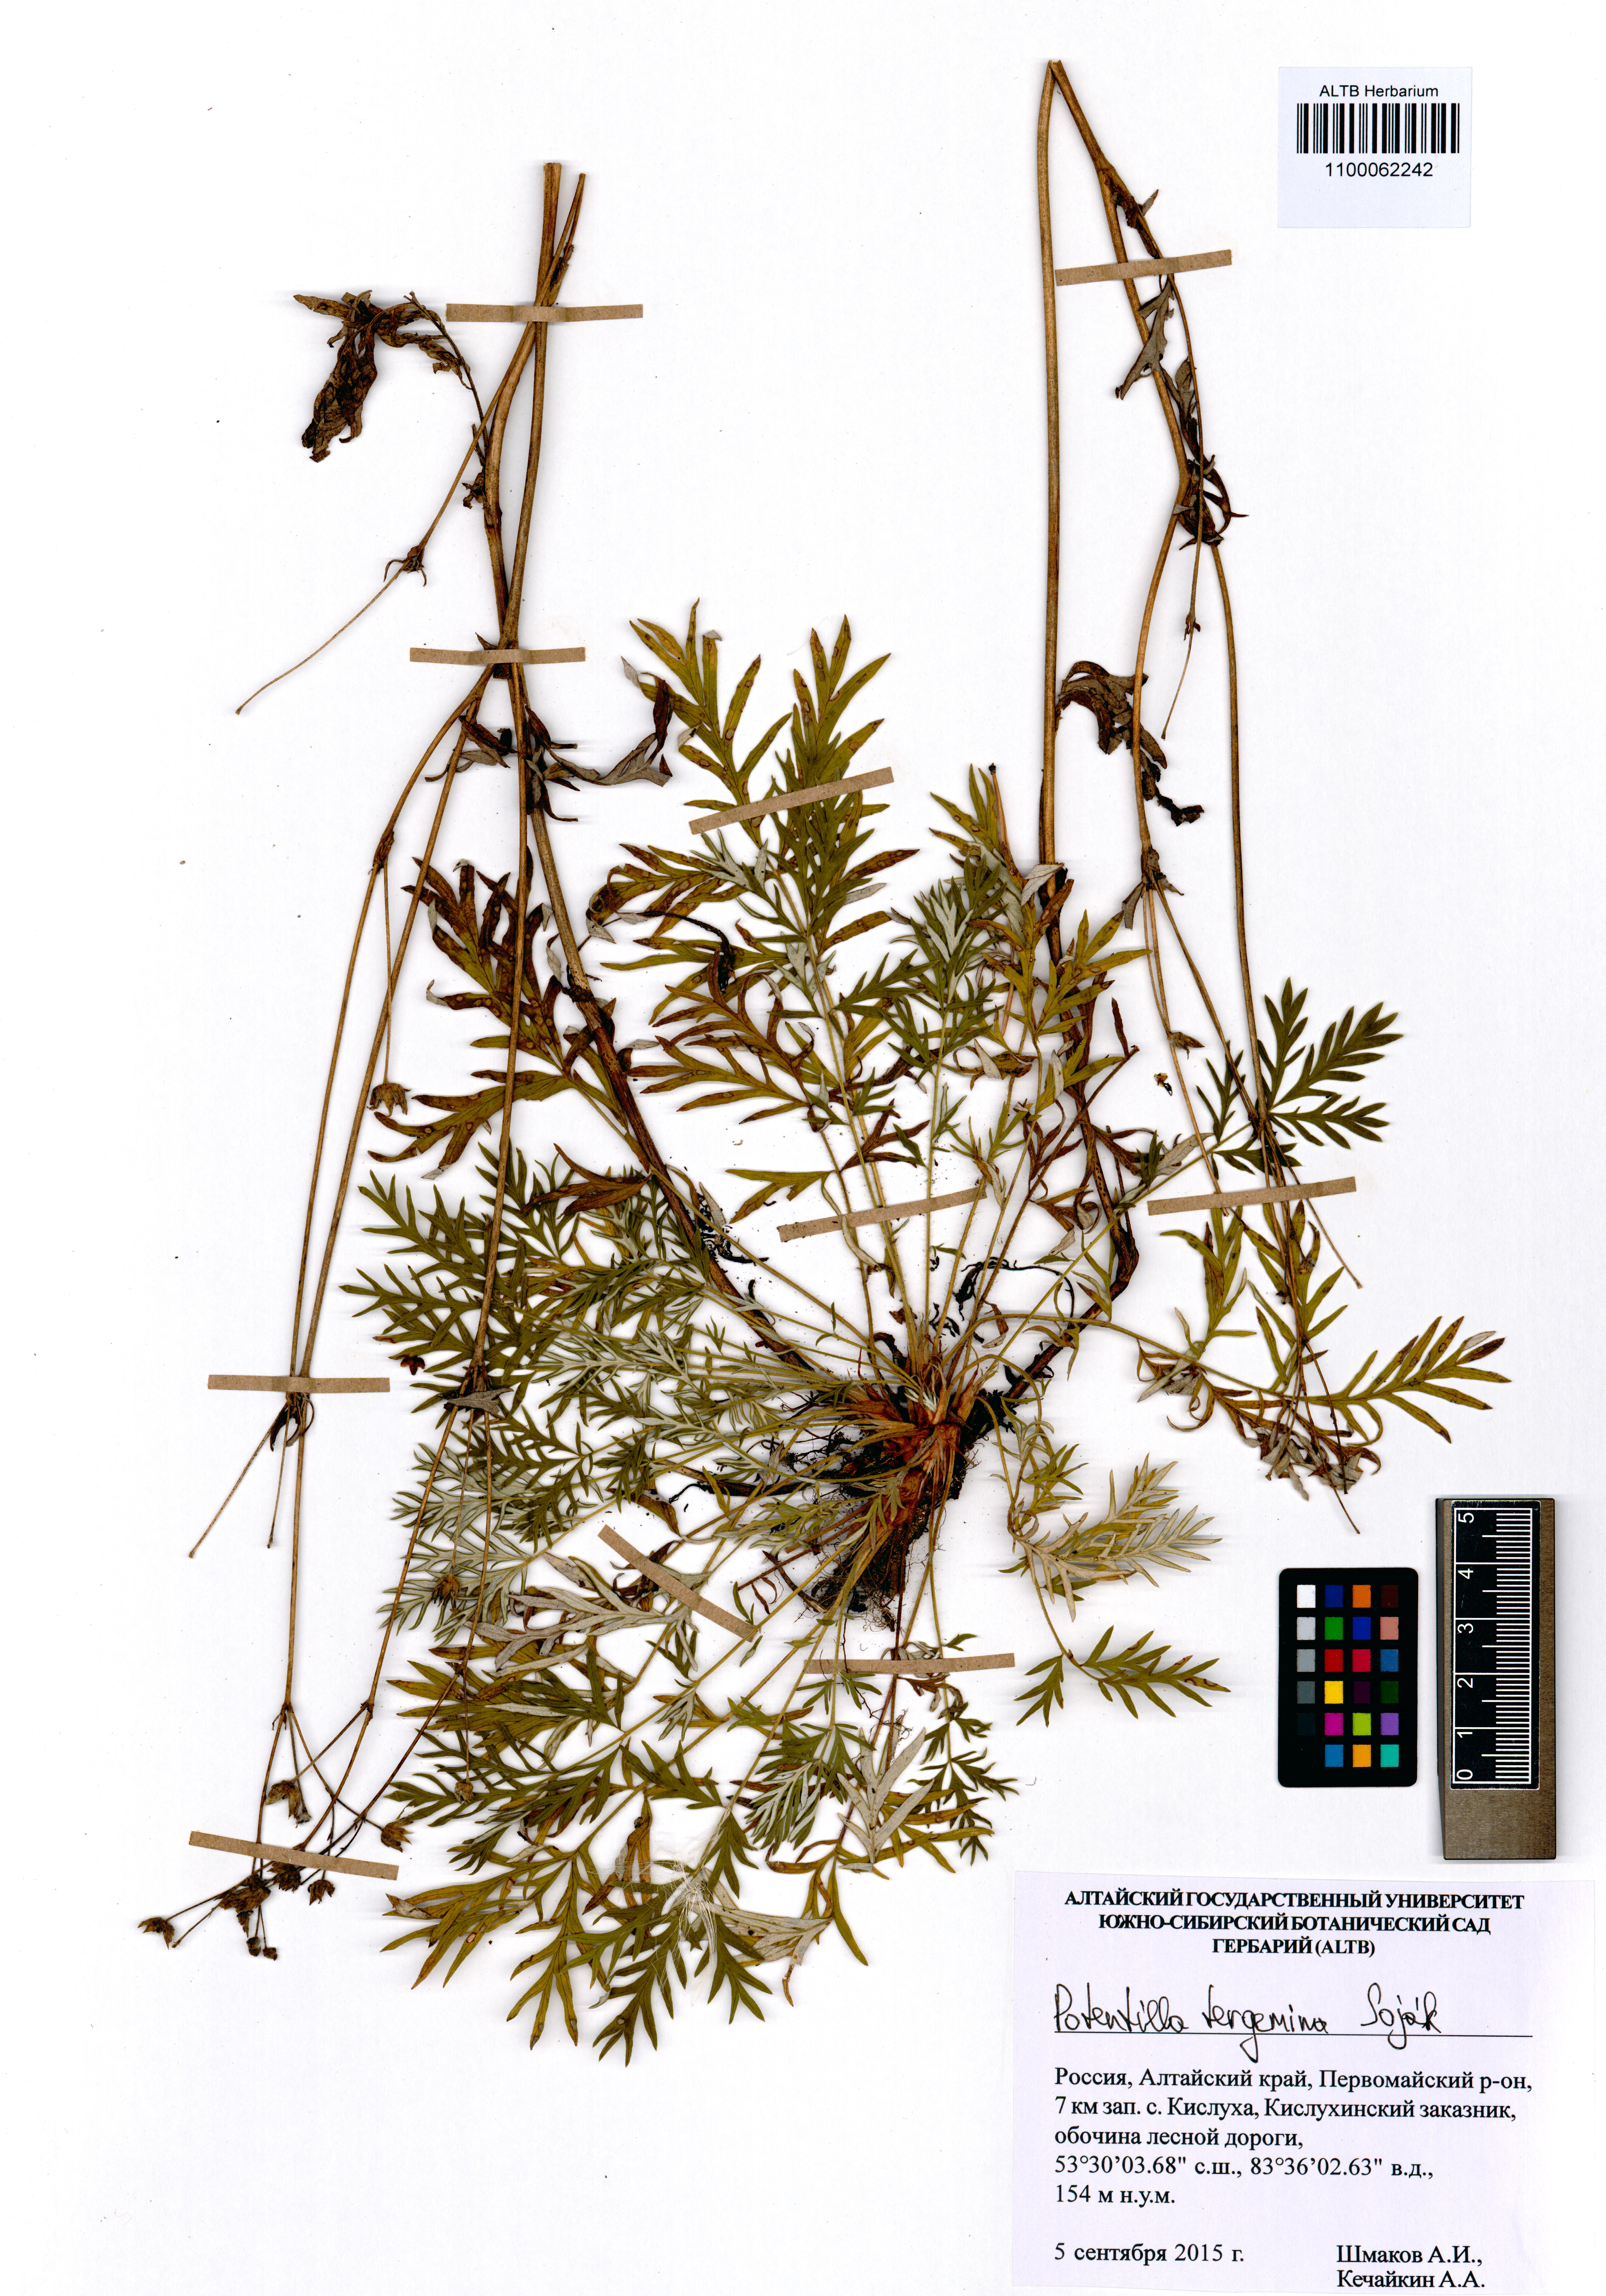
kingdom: Plantae
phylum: Tracheophyta
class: Magnoliopsida
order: Rosales
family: Rosaceae
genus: Potentilla
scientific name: Potentilla tergemina
